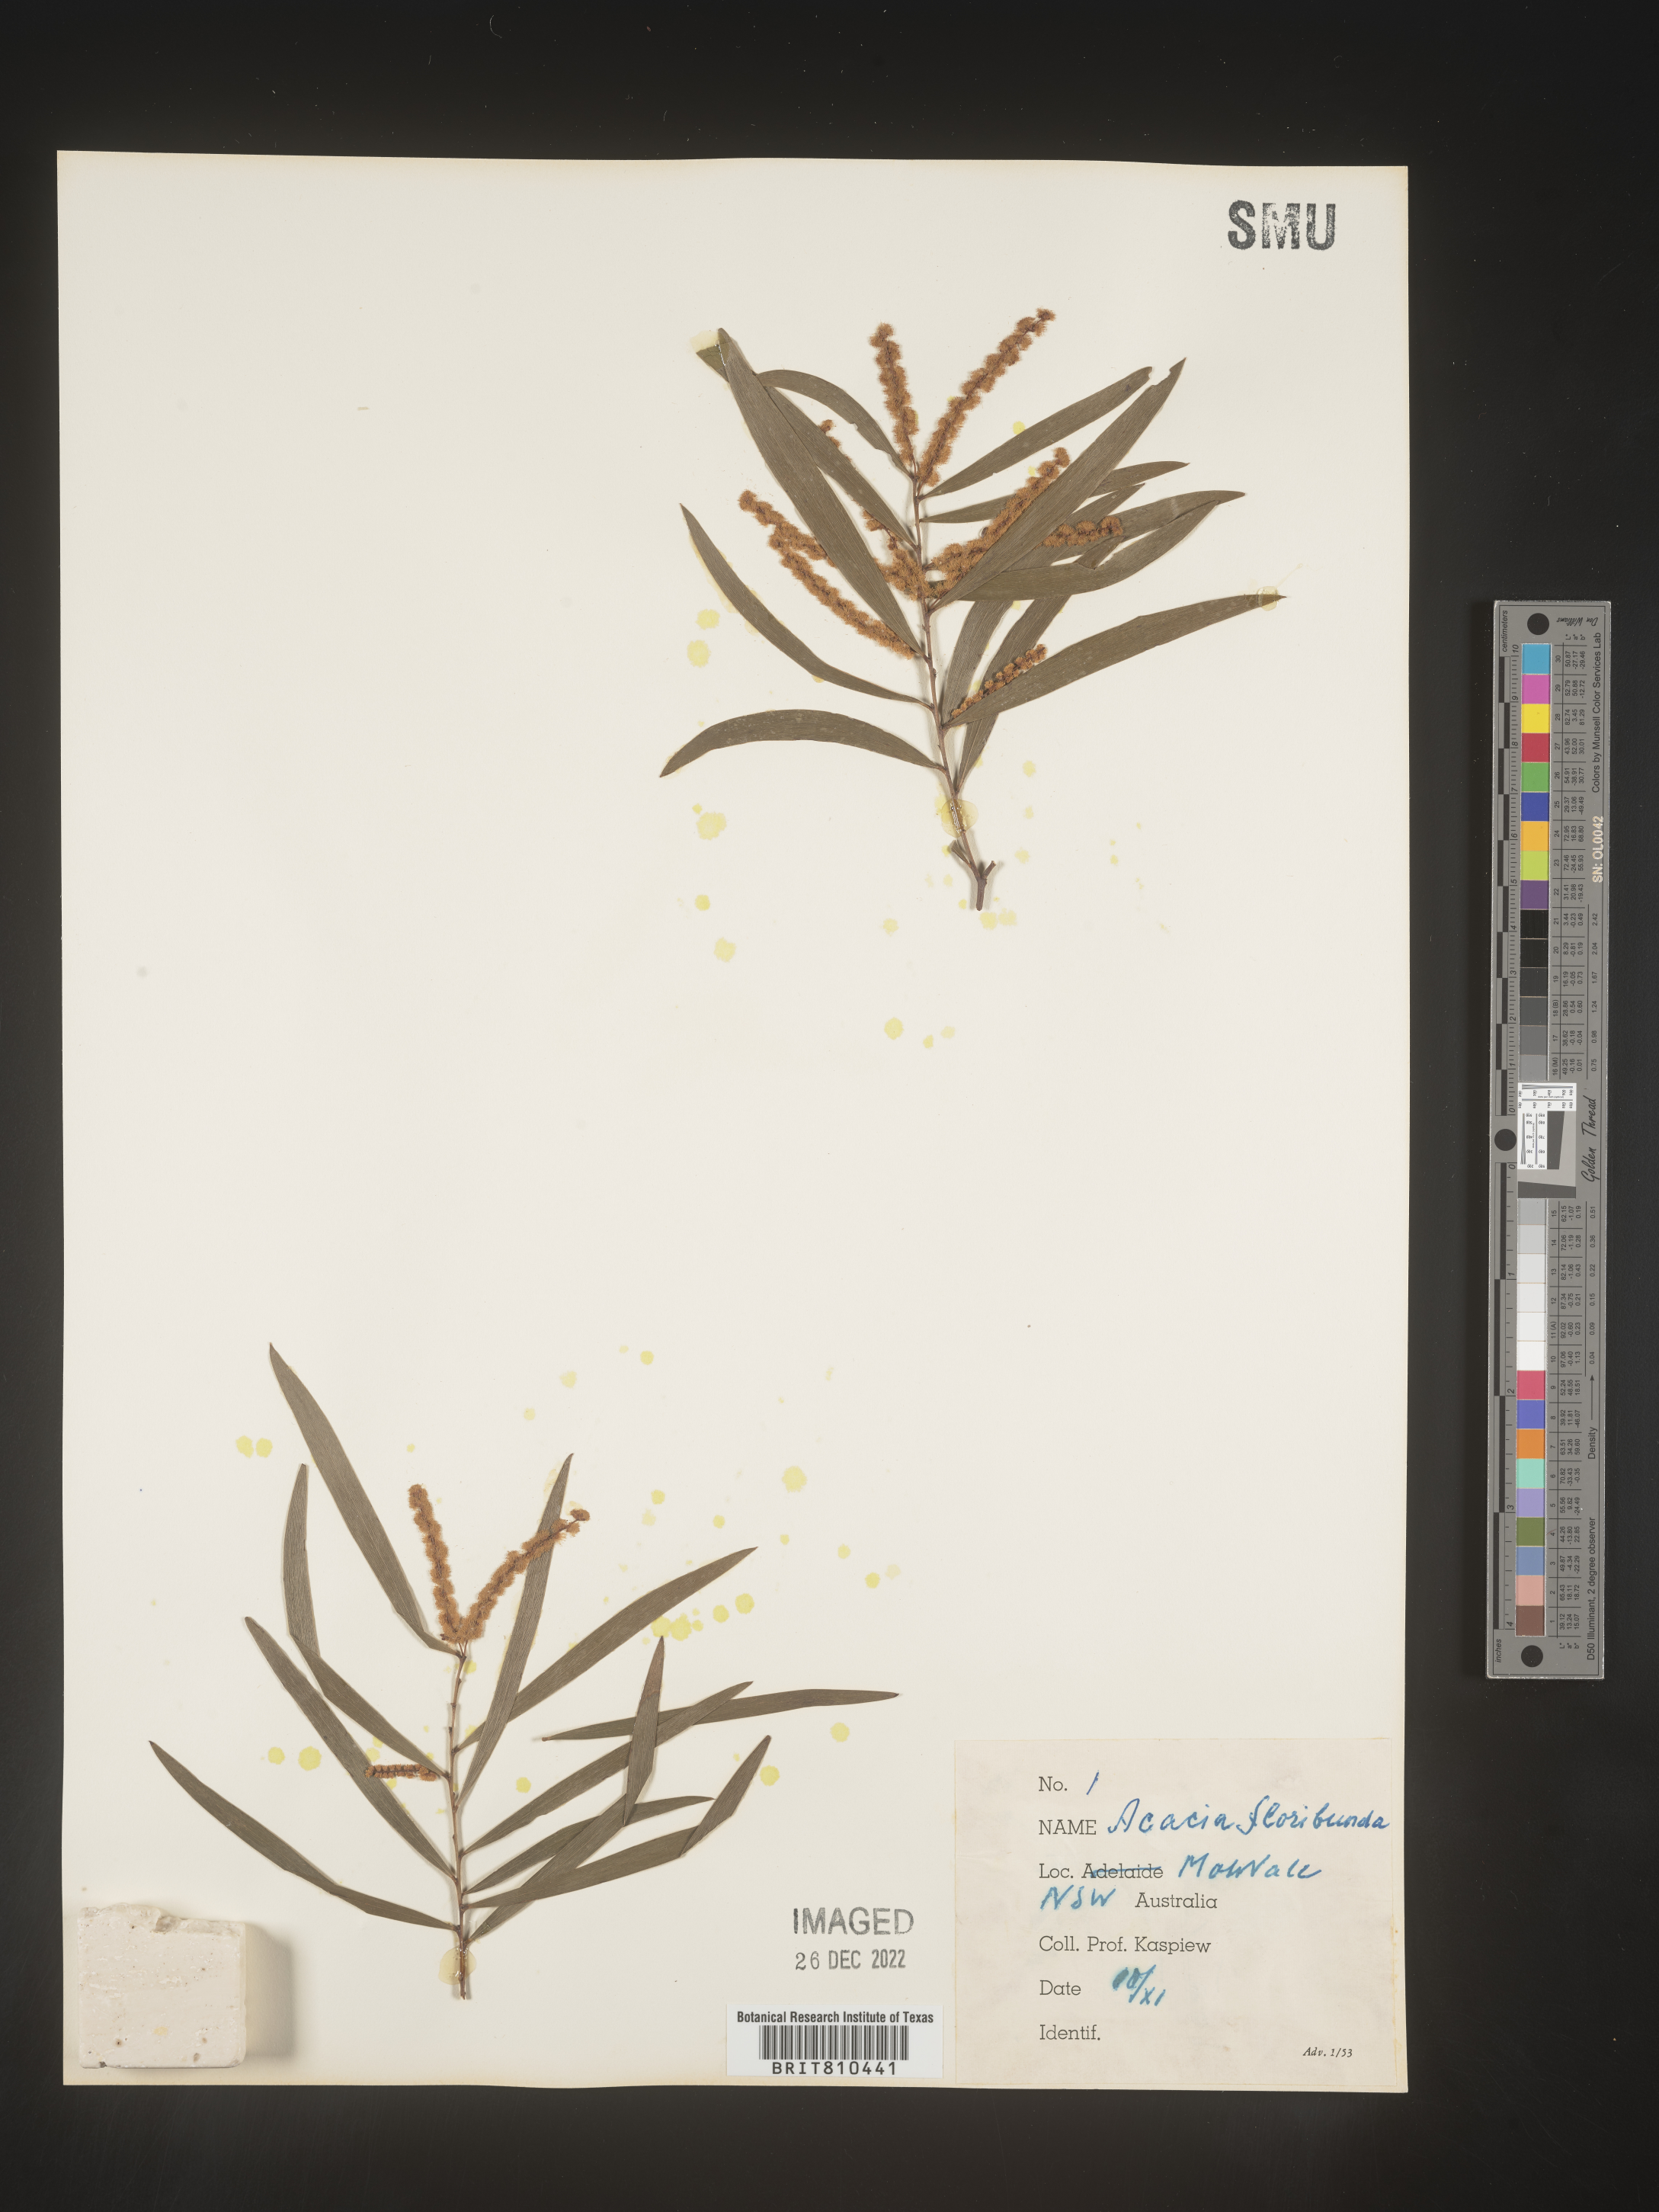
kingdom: Plantae
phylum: Tracheophyta
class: Magnoliopsida
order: Fabales
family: Fabaceae
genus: Acacia
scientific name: Acacia
